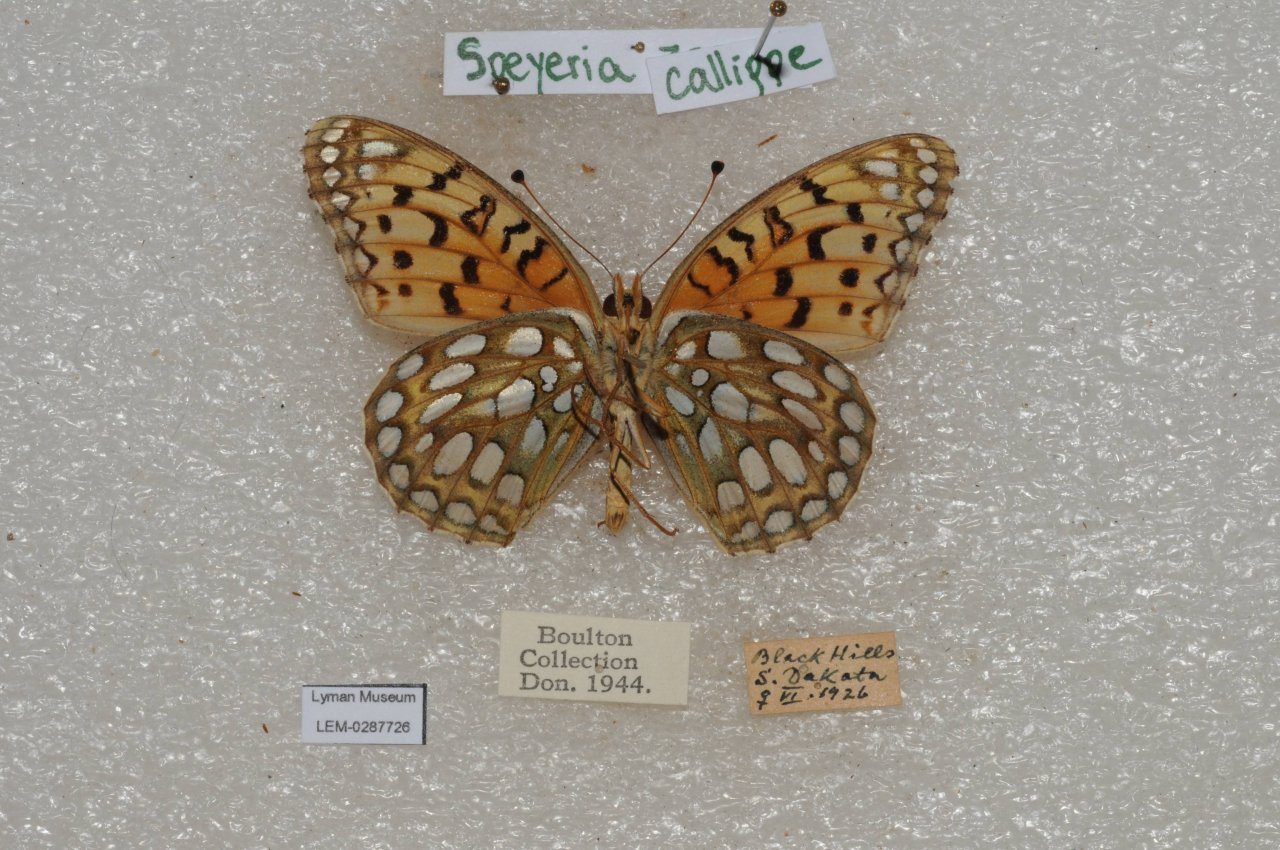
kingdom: Animalia
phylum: Arthropoda
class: Insecta
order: Lepidoptera
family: Nymphalidae
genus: Speyeria
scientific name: Speyeria callippe
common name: Callippe Fritillary
